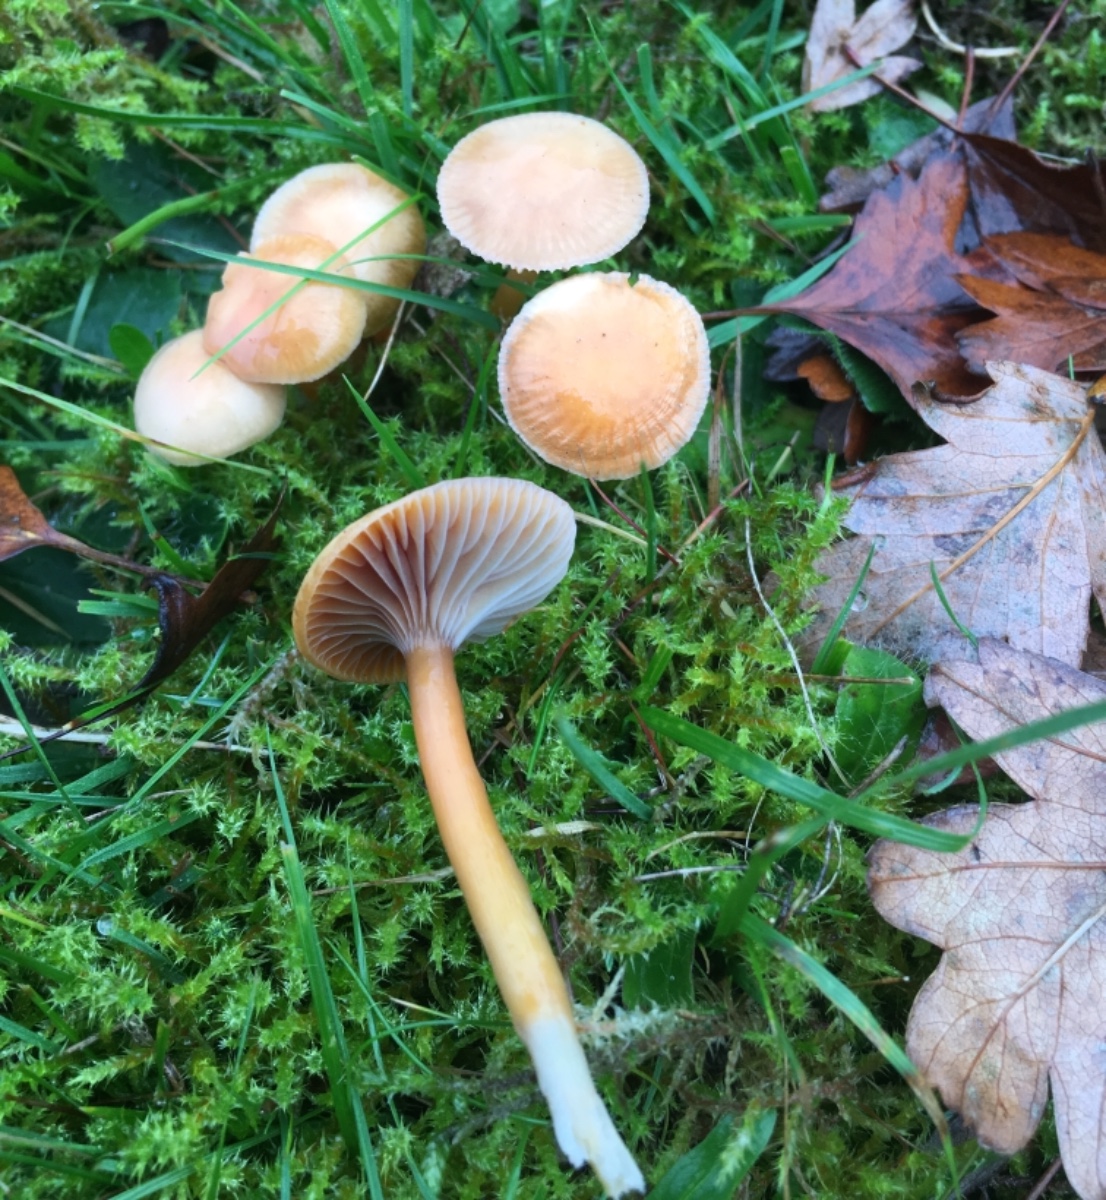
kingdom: Fungi
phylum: Basidiomycota
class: Agaricomycetes
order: Agaricales
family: Hygrophoraceae
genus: Gliophorus
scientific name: Gliophorus laetus
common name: brusk-vokshat
